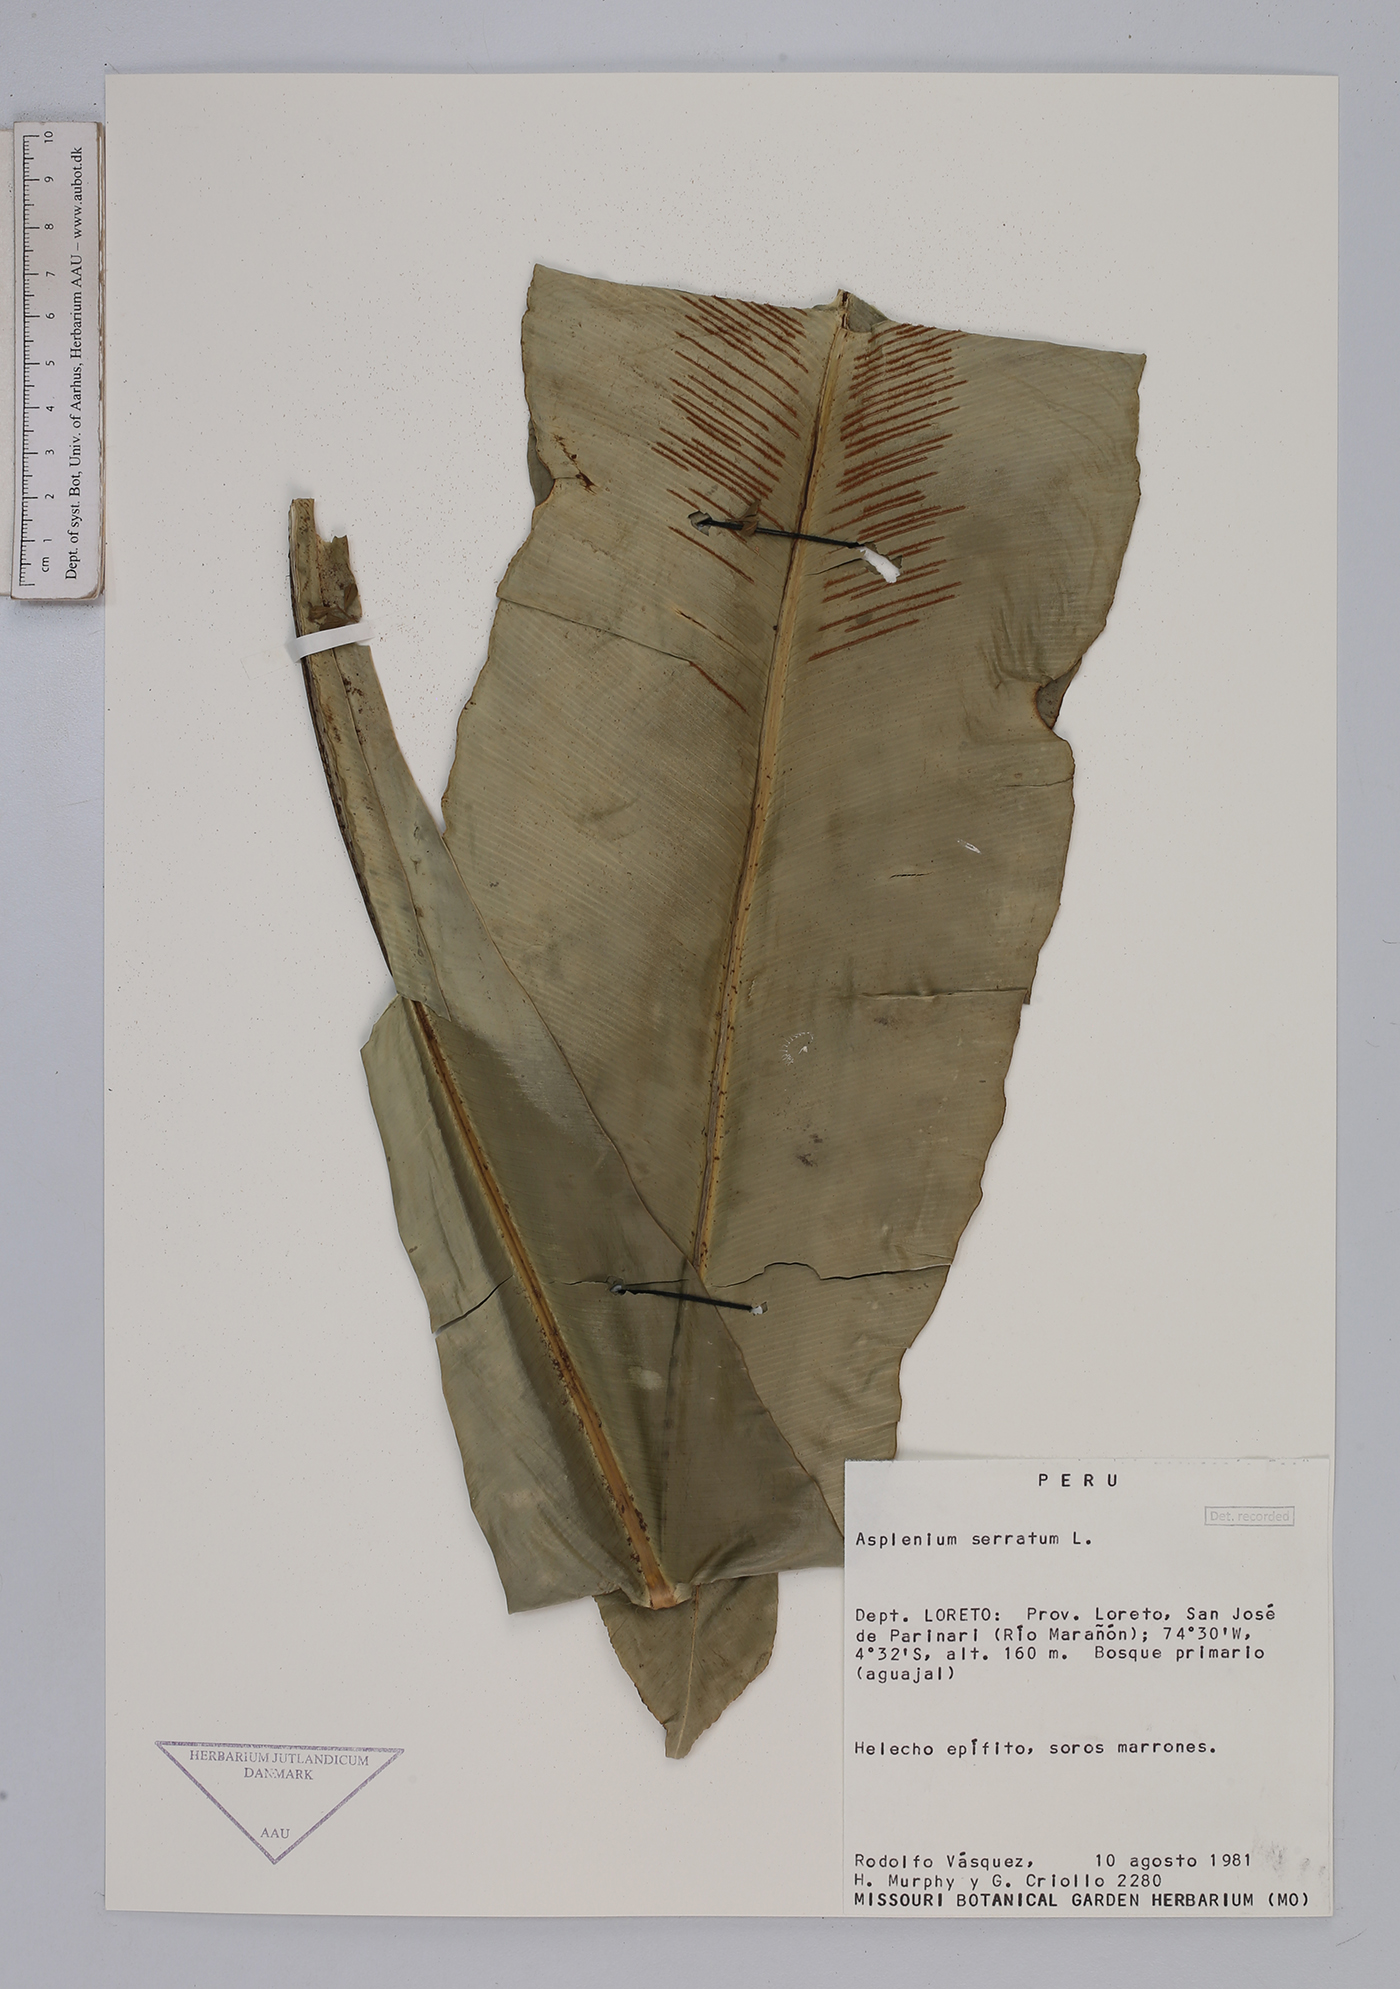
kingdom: Plantae
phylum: Tracheophyta
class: Polypodiopsida
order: Polypodiales
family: Aspleniaceae
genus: Asplenium
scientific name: Asplenium serratum
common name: Wild birdnest fern
